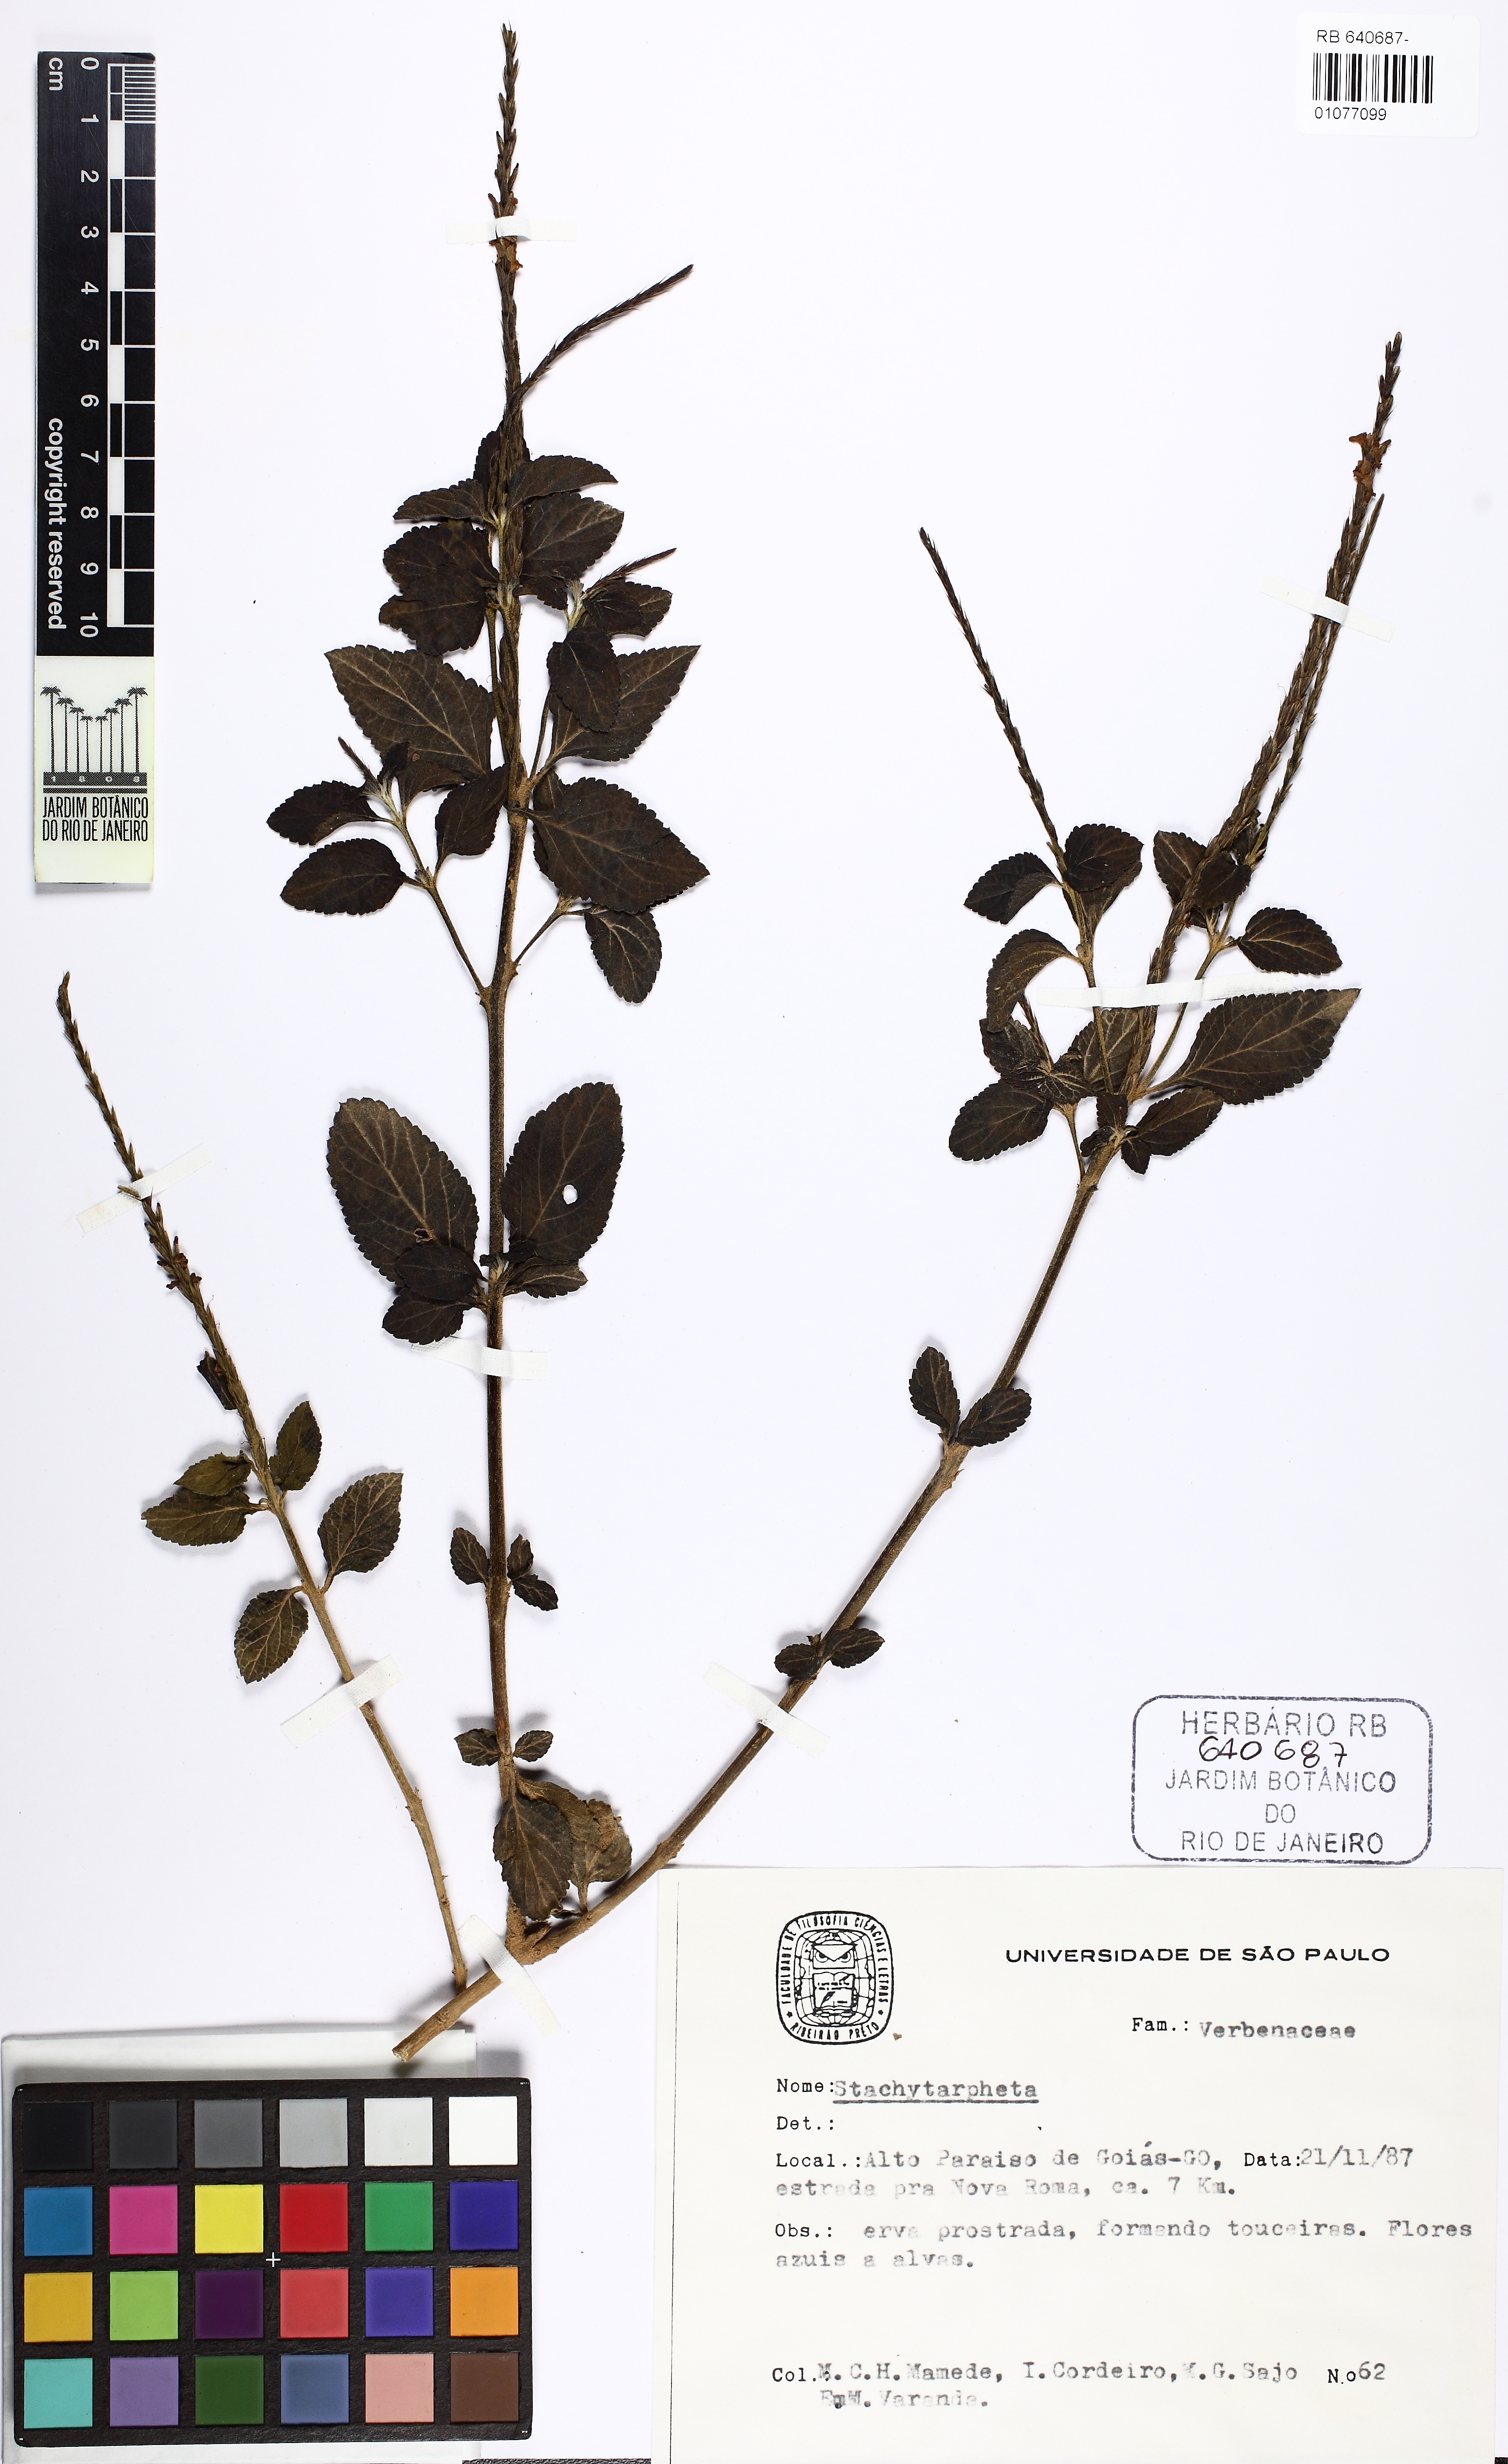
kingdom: Plantae
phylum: Tracheophyta
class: Magnoliopsida
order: Lamiales
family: Verbenaceae
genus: Stachytarpheta
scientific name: Stachytarpheta cayennensis
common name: Cayenne porterweed
